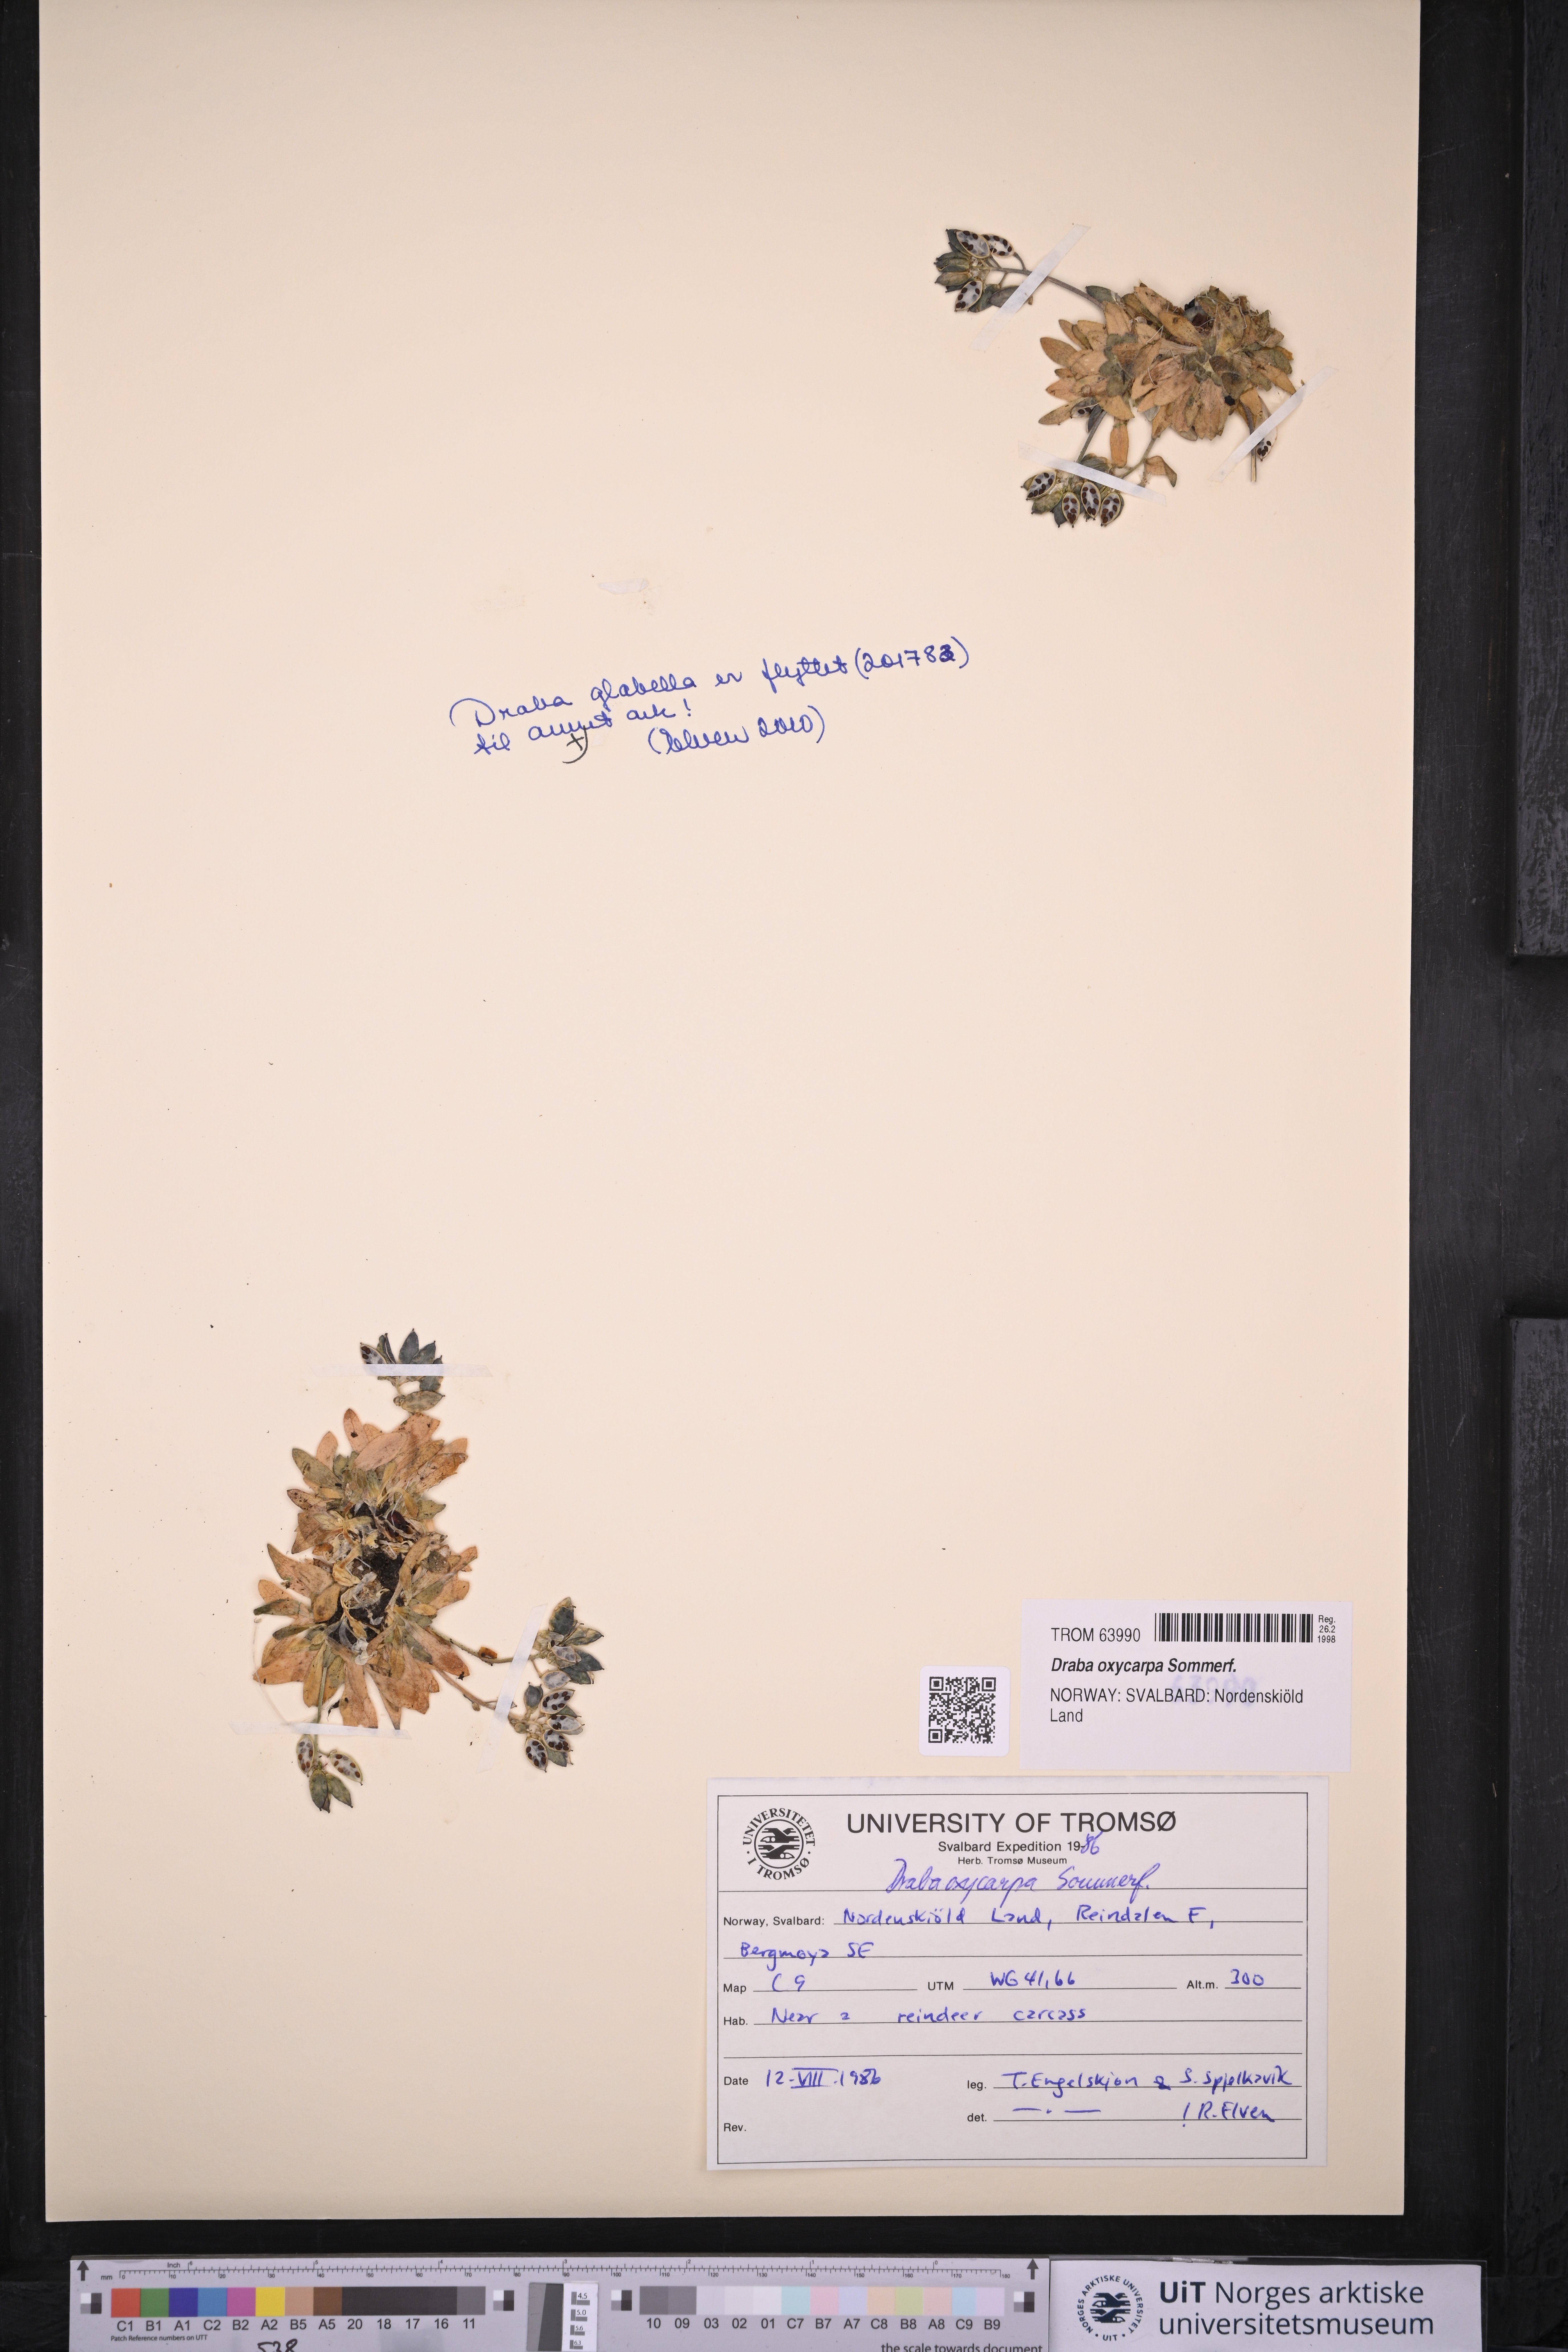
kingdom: Plantae
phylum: Tracheophyta
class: Magnoliopsida
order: Brassicales
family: Brassicaceae
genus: Draba
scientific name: Draba oxycarpa
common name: Sharp-fruited whitlow-grass
